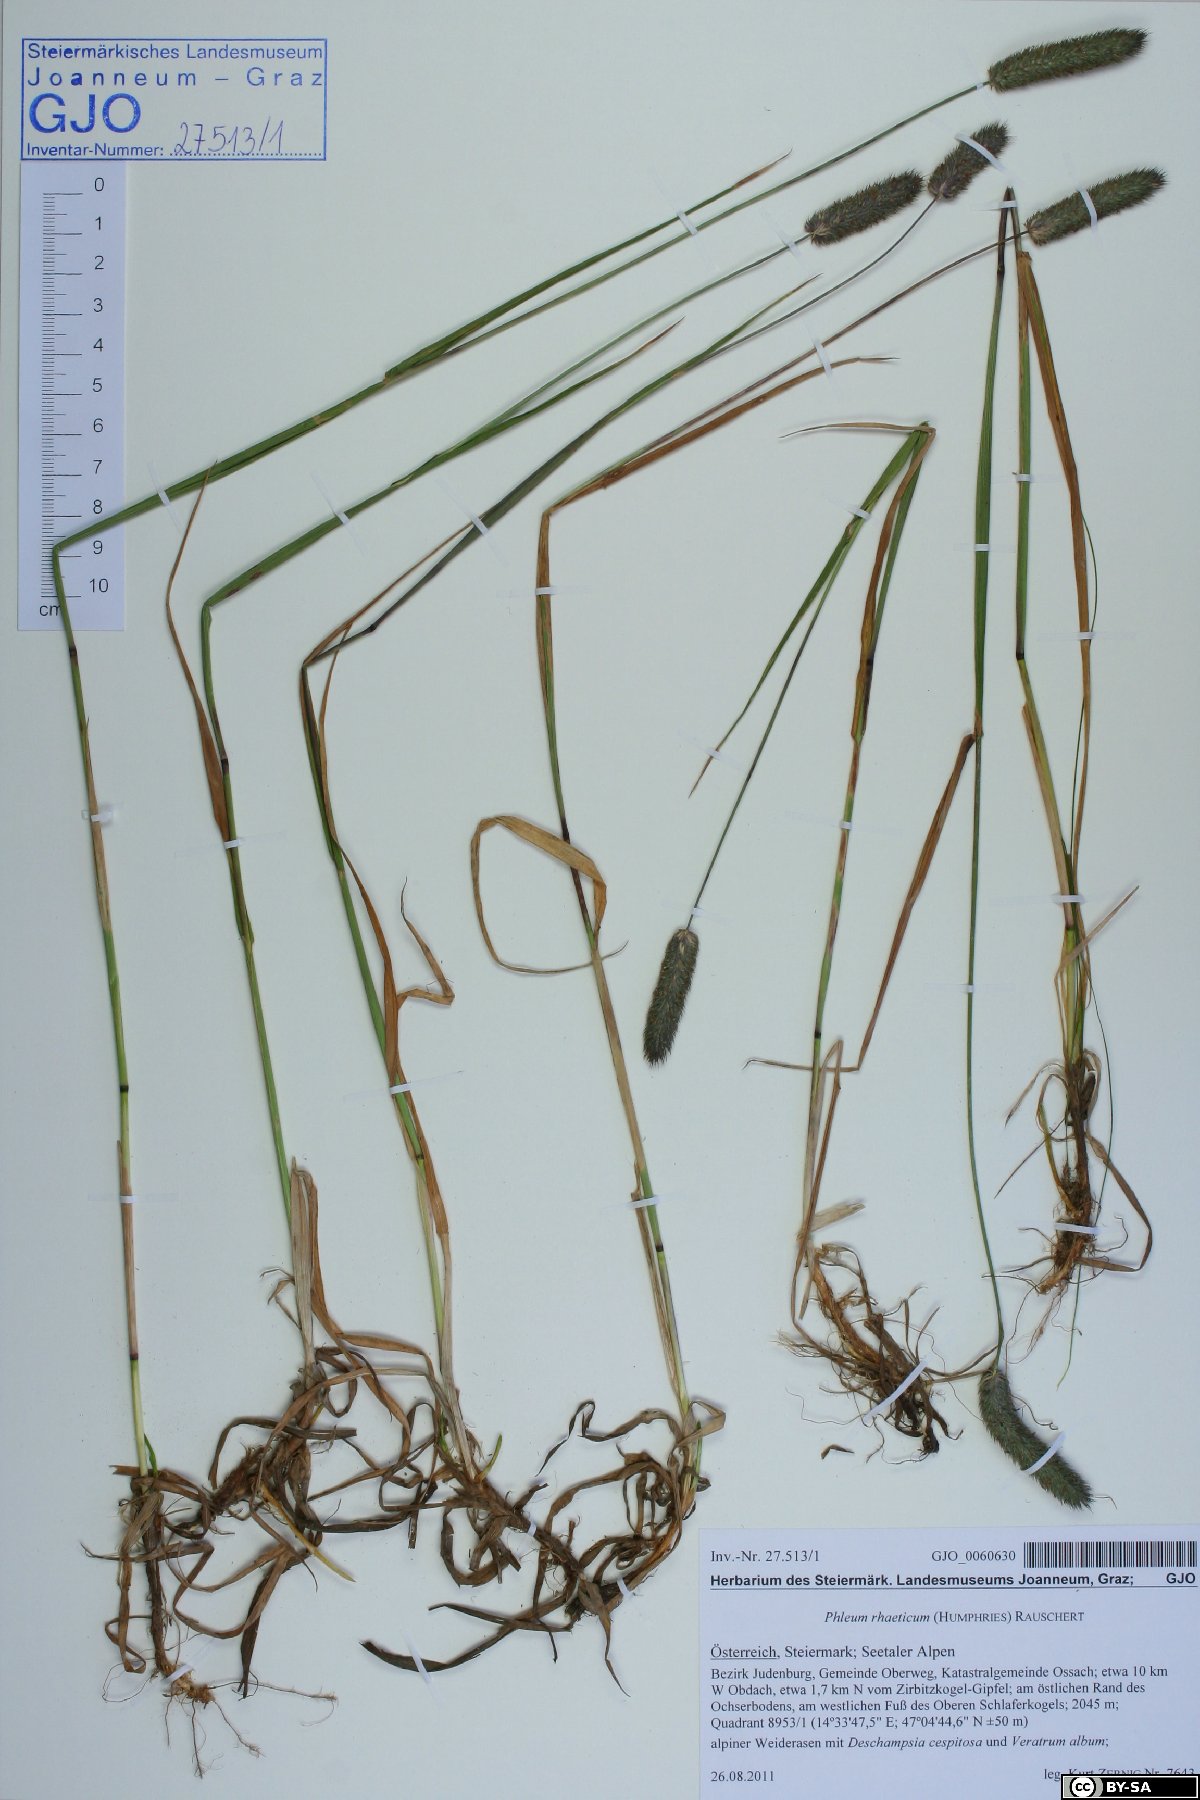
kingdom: Plantae
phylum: Tracheophyta
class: Liliopsida
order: Poales
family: Poaceae
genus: Phleum
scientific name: Phleum alpinum
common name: Alpine cat's-tail
